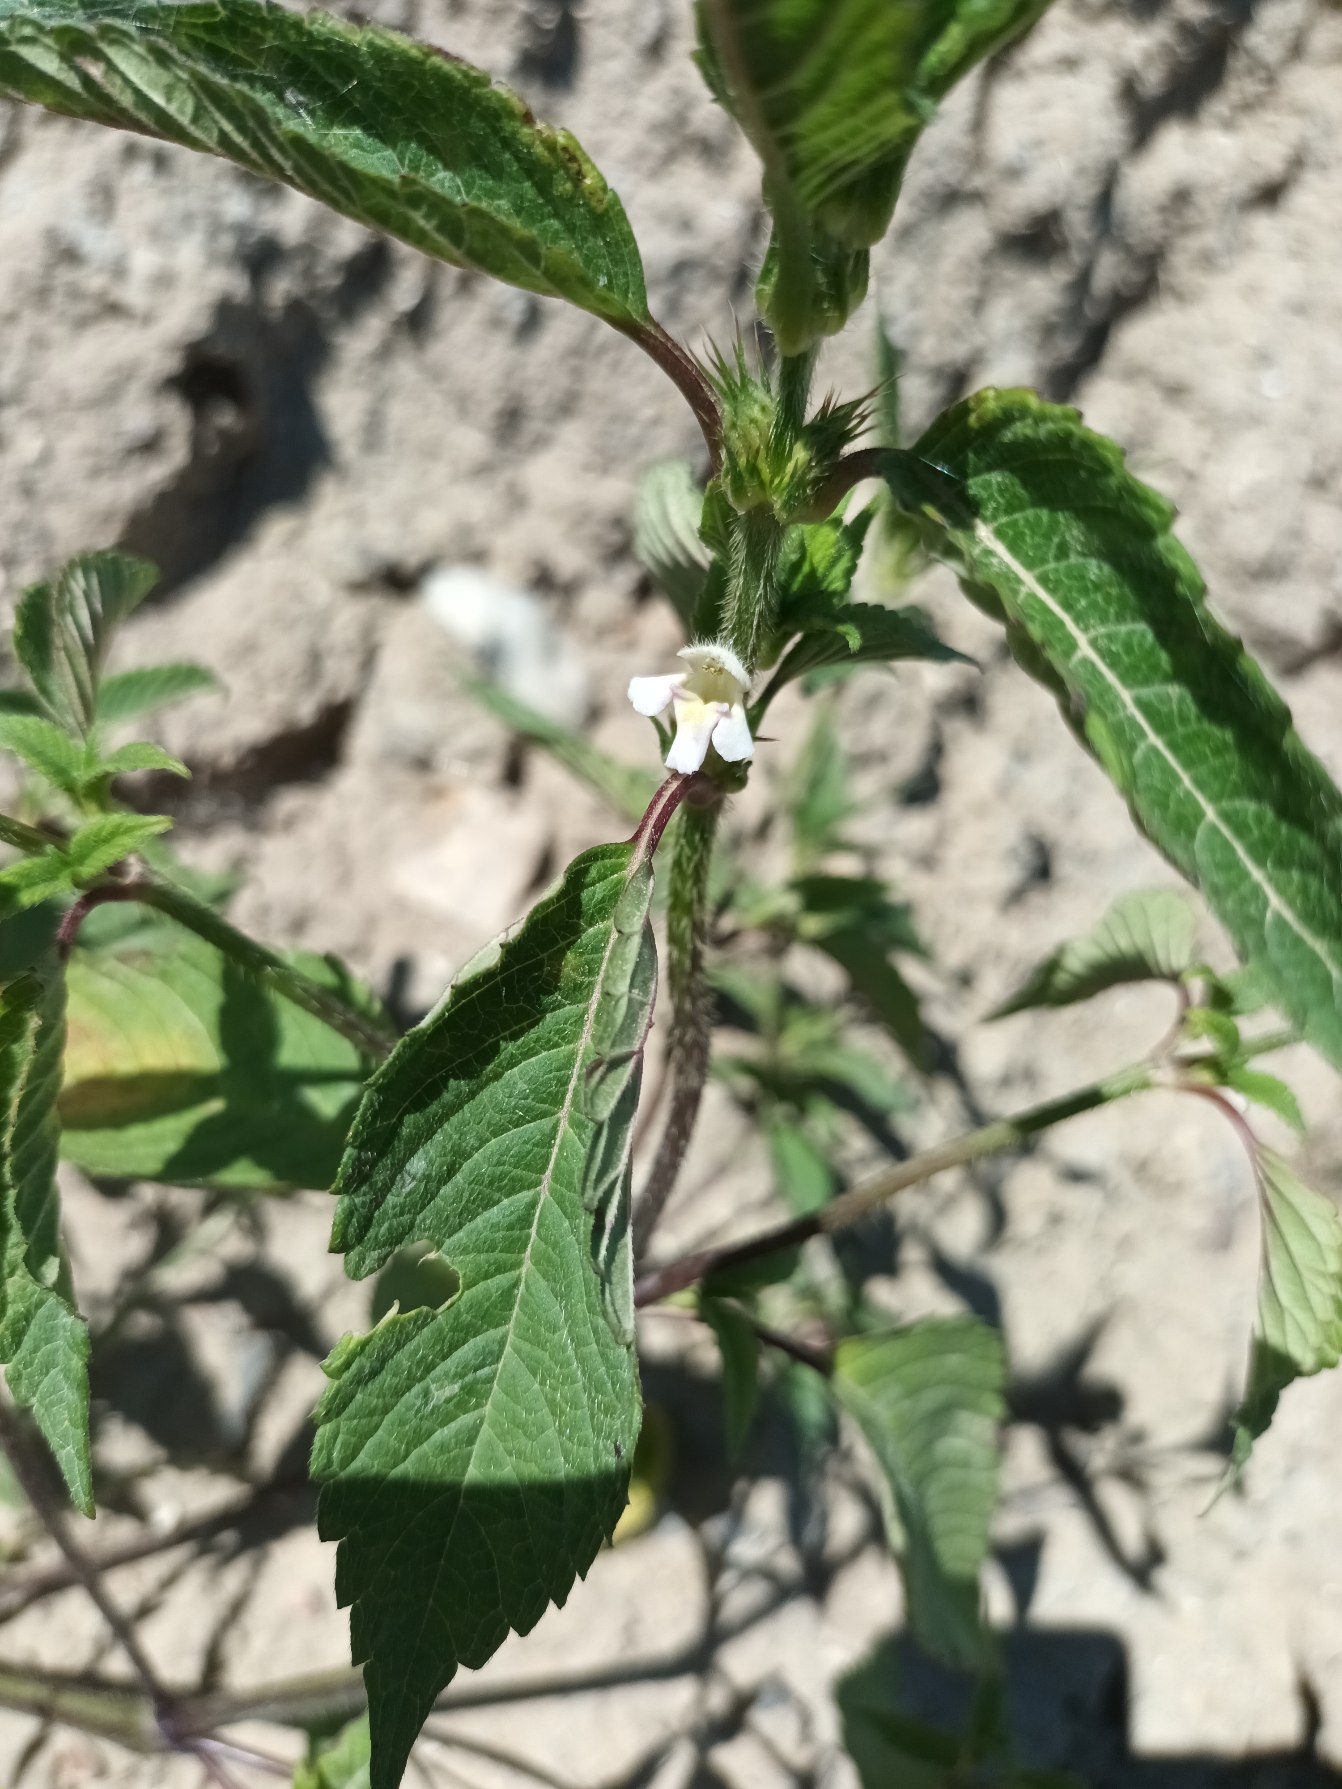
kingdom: Plantae
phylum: Tracheophyta
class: Magnoliopsida
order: Lamiales
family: Lamiaceae
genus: Galeopsis
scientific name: Galeopsis tetrahit
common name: Almindelig hanekro
